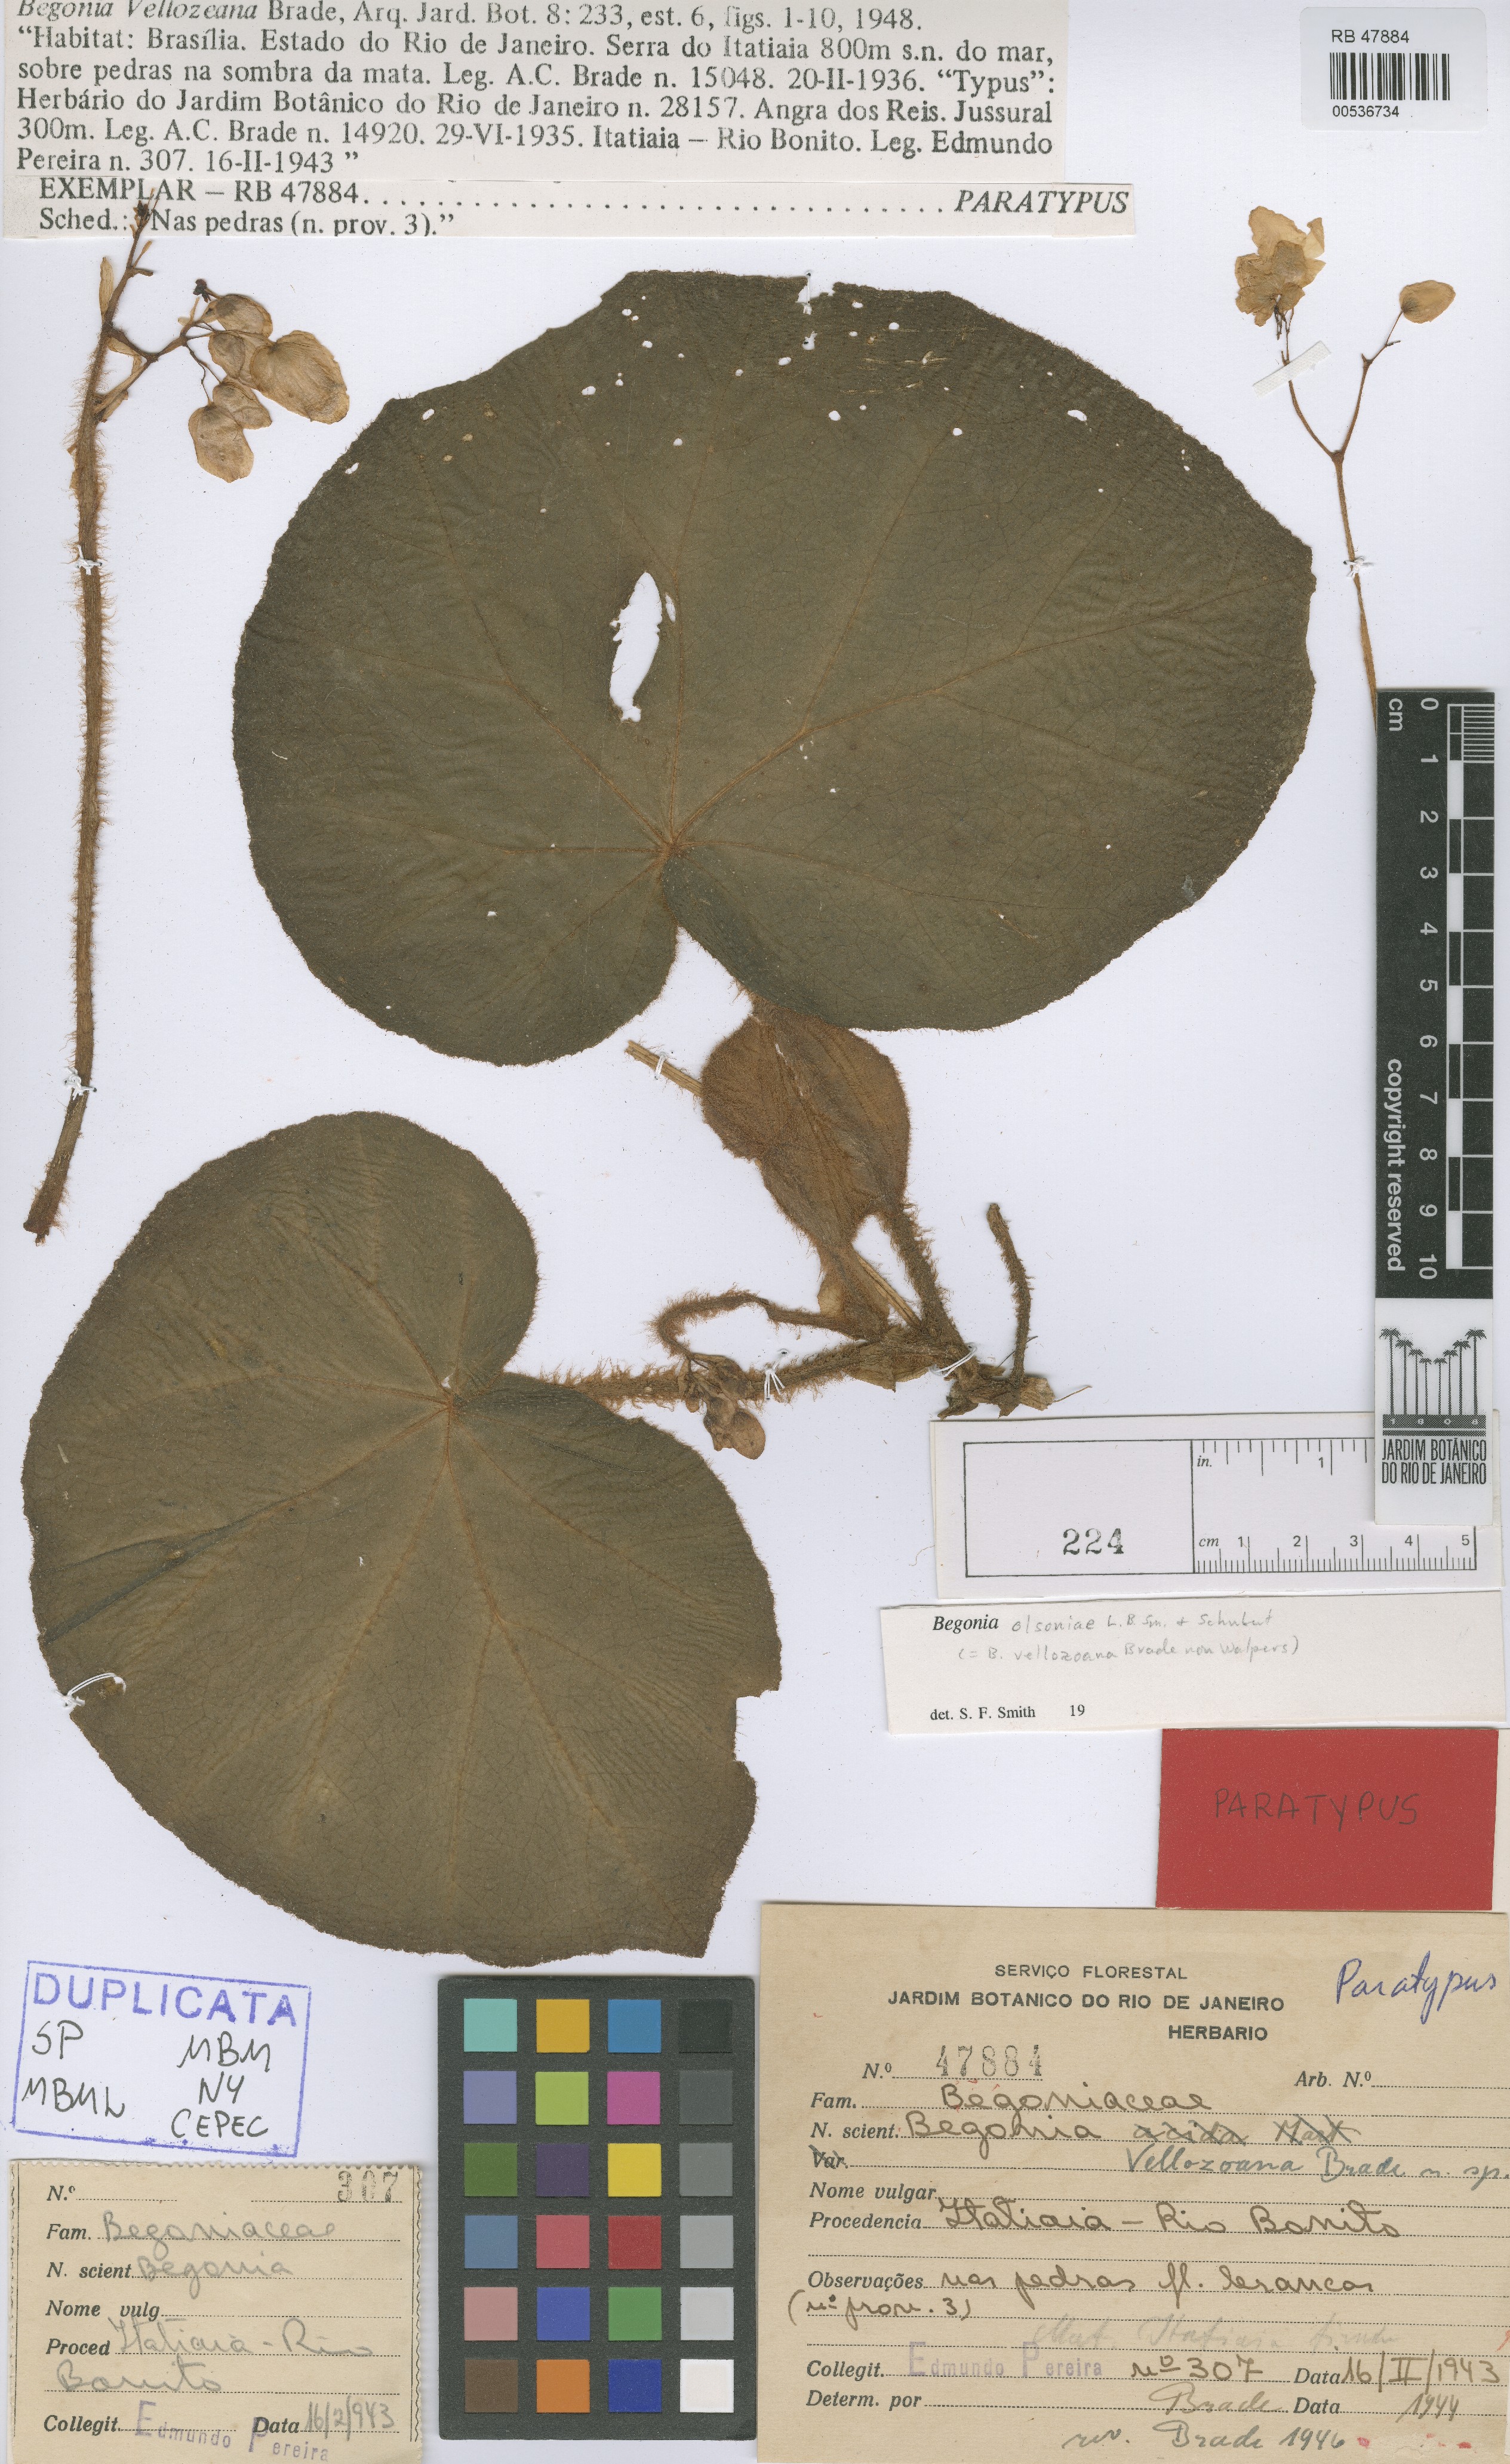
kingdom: Plantae
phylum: Tracheophyta
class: Magnoliopsida
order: Cucurbitales
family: Begoniaceae
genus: Begonia
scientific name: Begonia olsoniae
